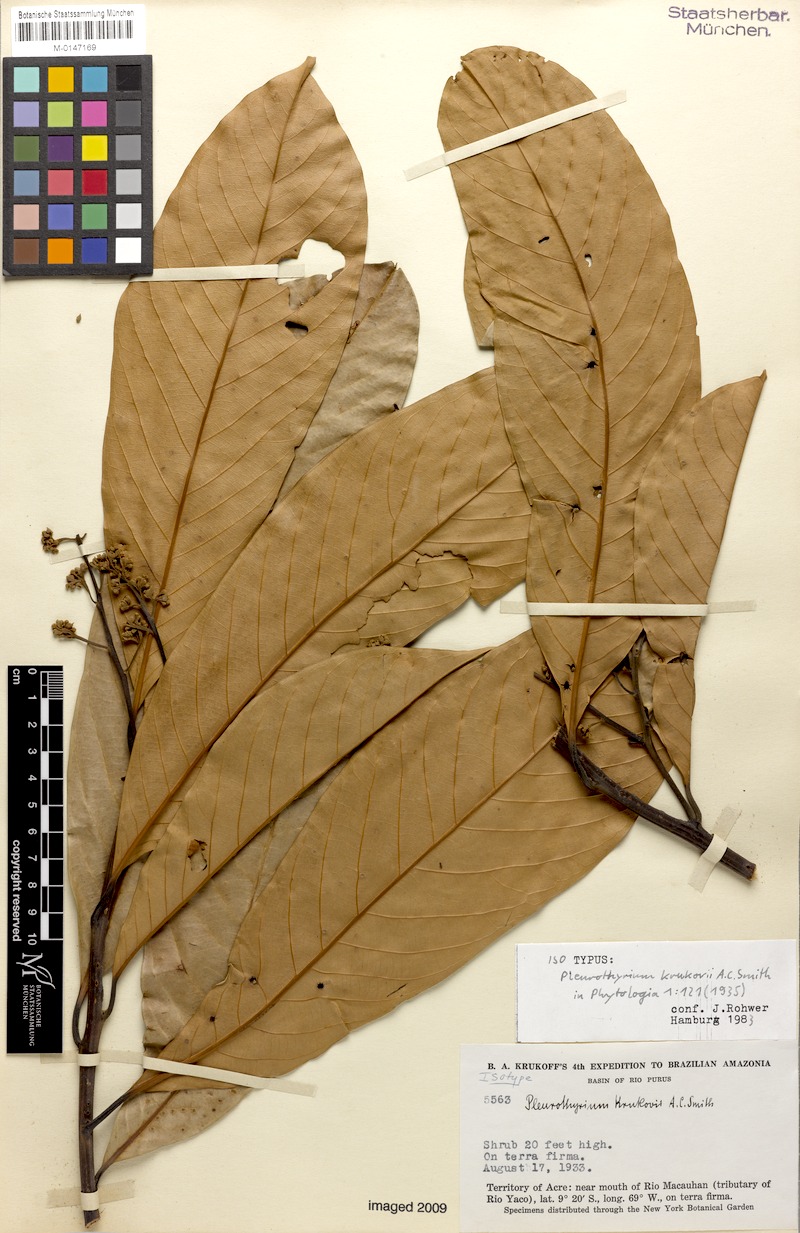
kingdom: Plantae
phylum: Tracheophyta
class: Magnoliopsida
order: Laurales
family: Lauraceae
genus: Pleurothyrium
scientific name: Pleurothyrium poeppigii
